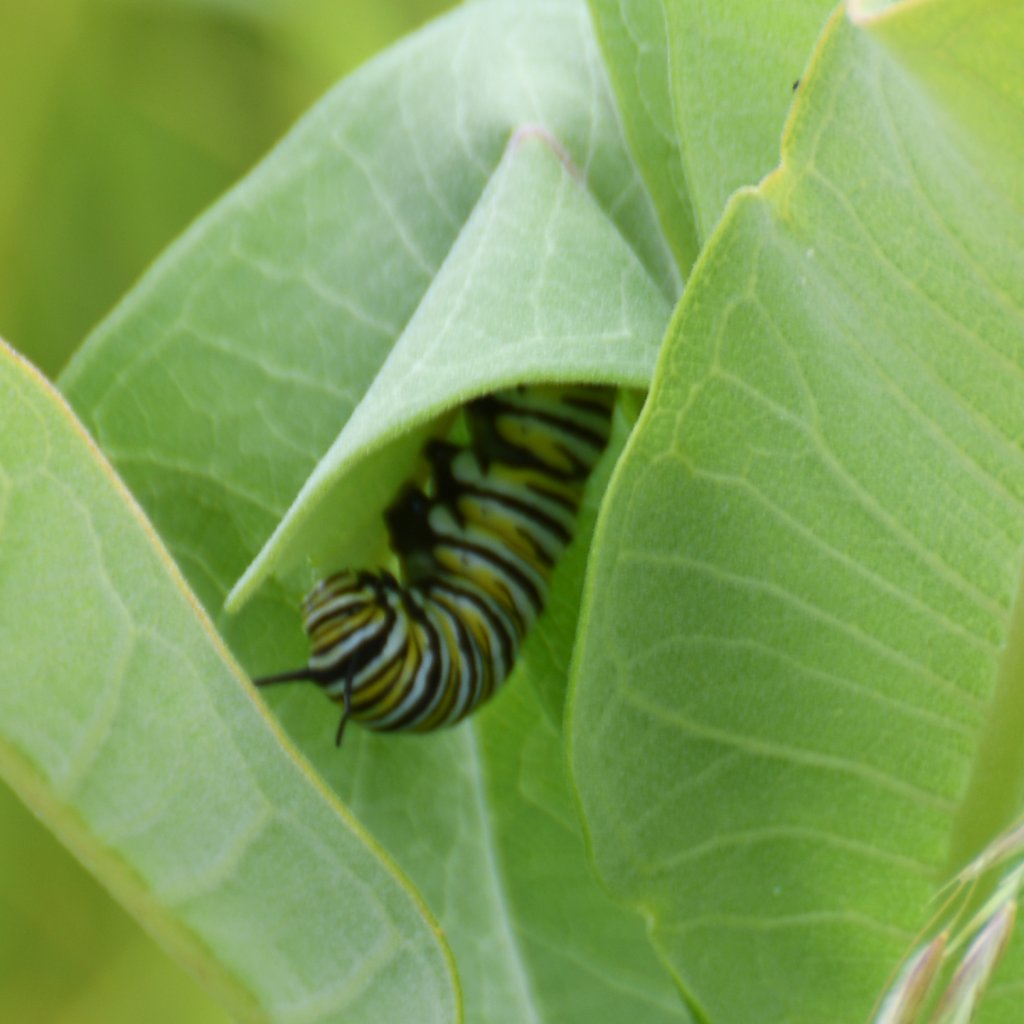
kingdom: Animalia
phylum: Arthropoda
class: Insecta
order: Lepidoptera
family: Nymphalidae
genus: Danaus
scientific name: Danaus plexippus
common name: Monarch
